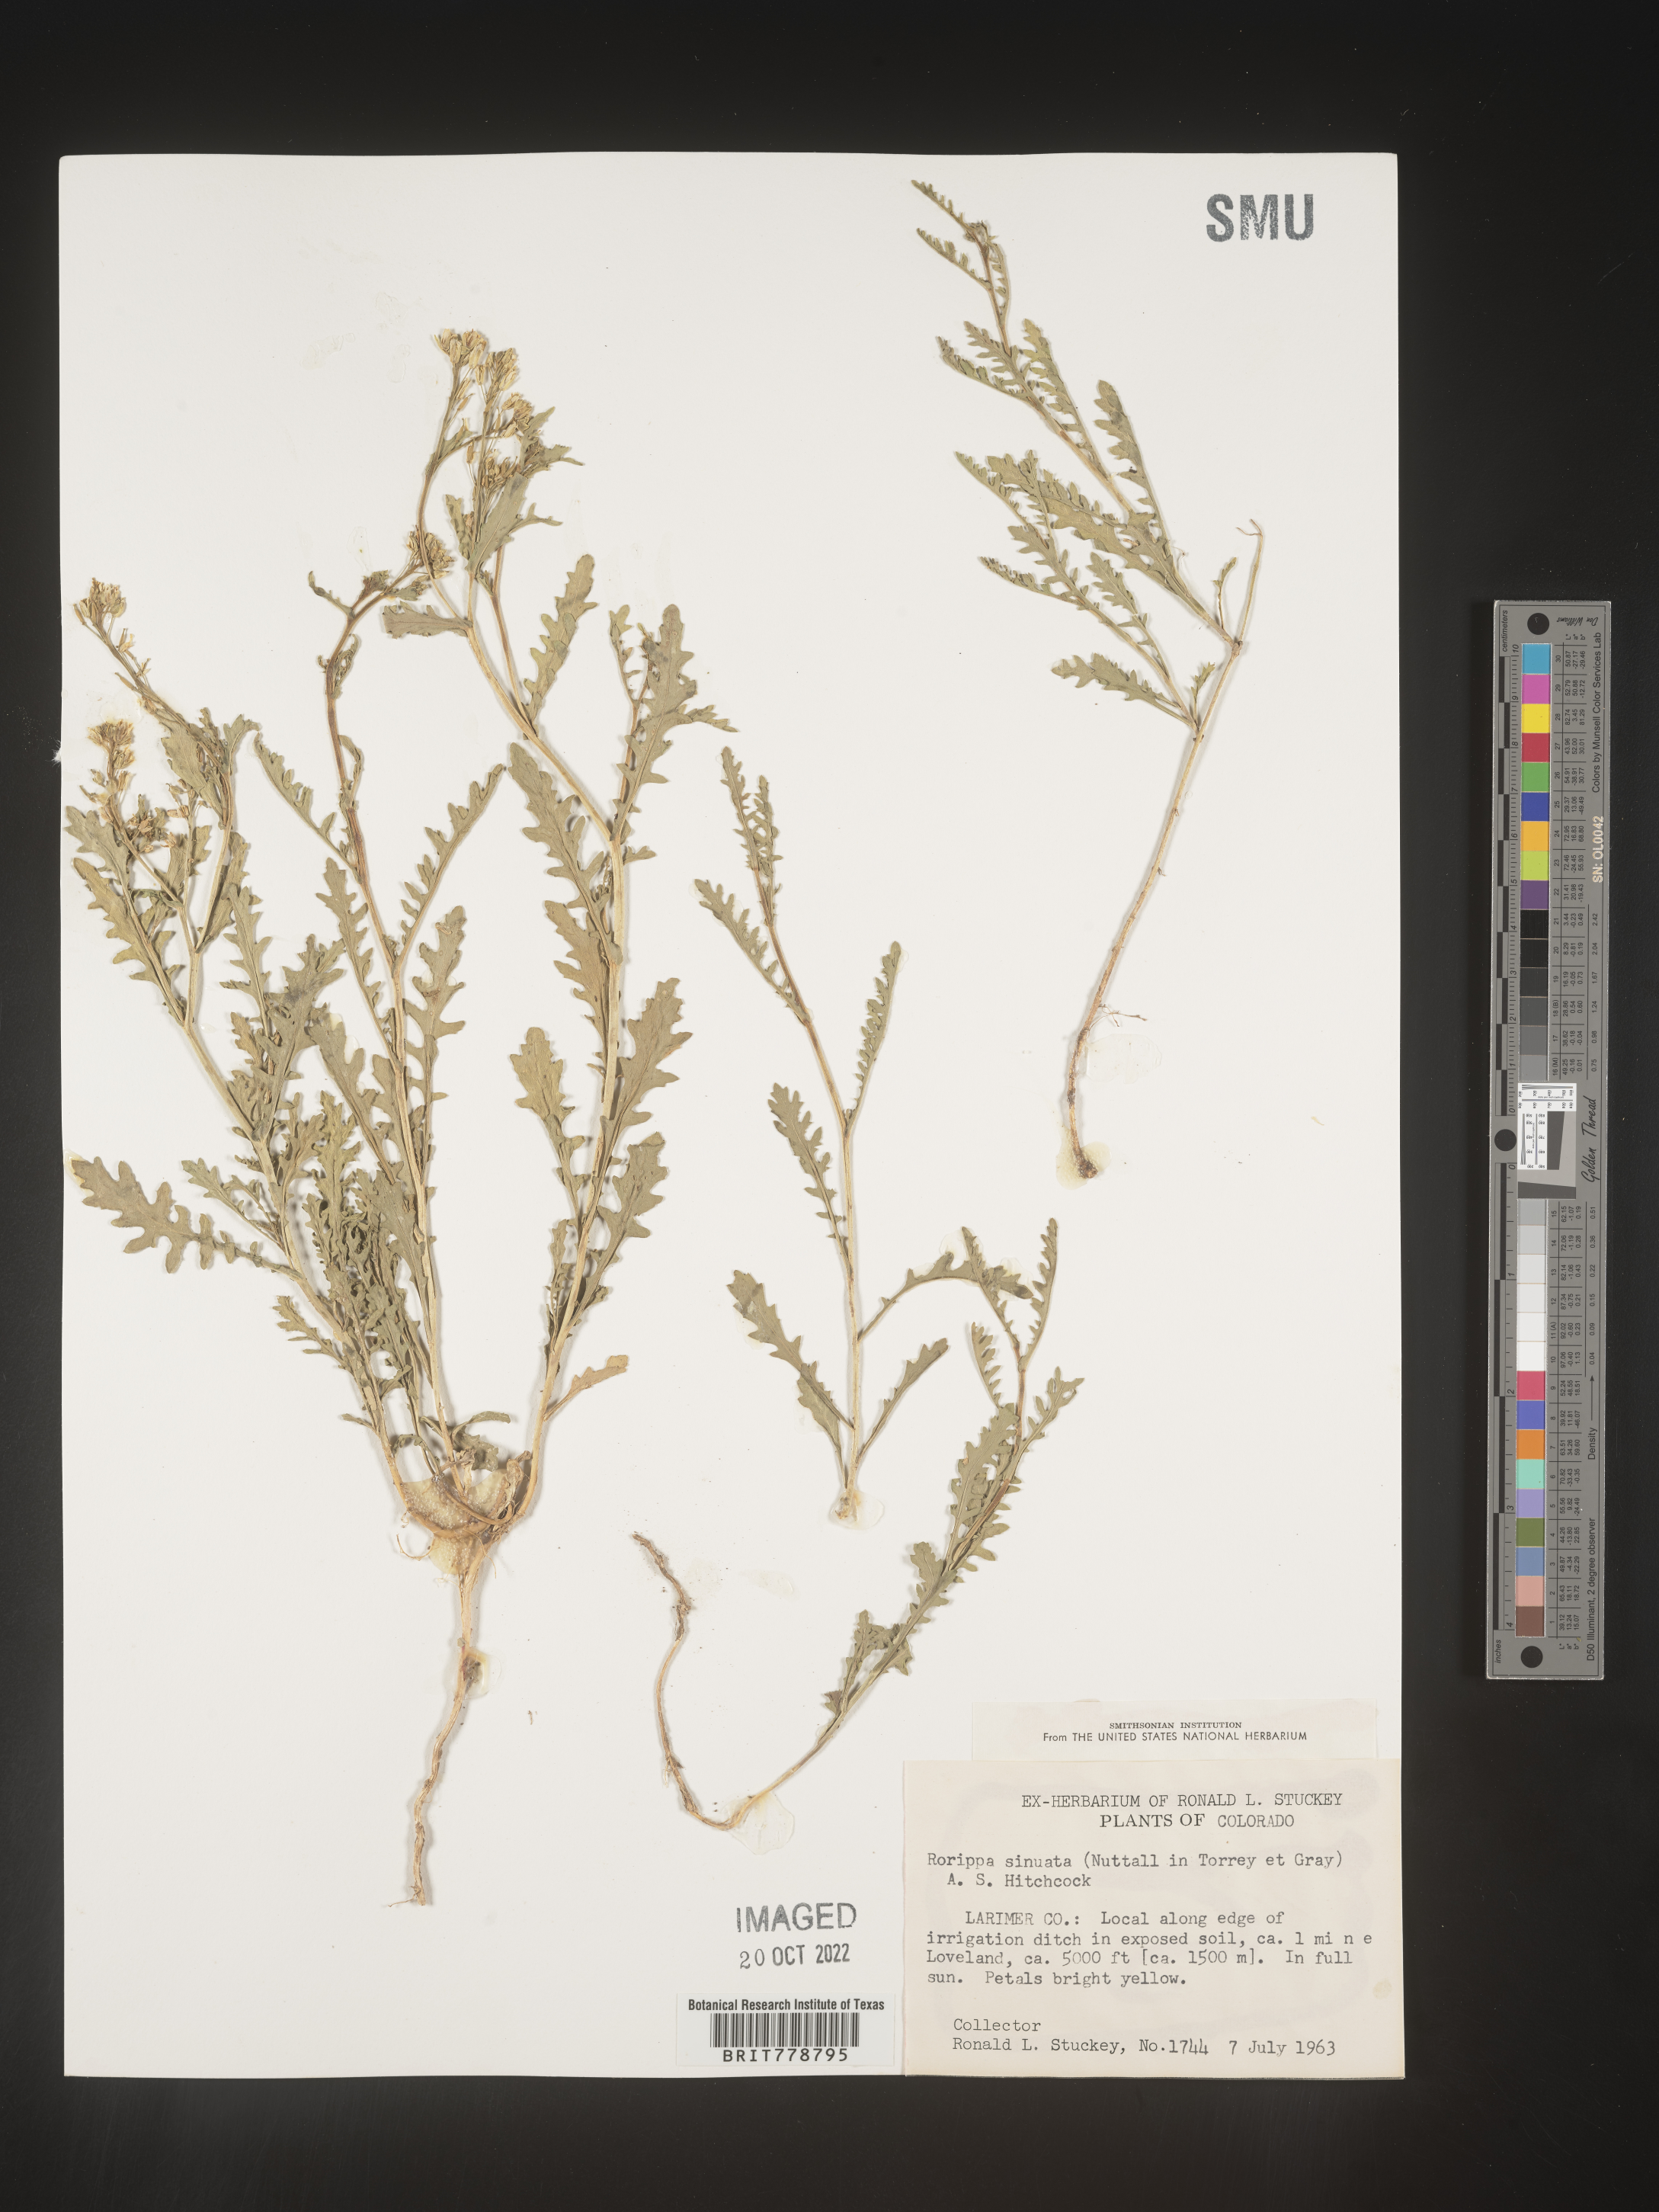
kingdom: Plantae
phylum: Tracheophyta
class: Magnoliopsida
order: Brassicales
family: Brassicaceae
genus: Rorippa
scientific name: Rorippa sinuata
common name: Spread yellow cress
